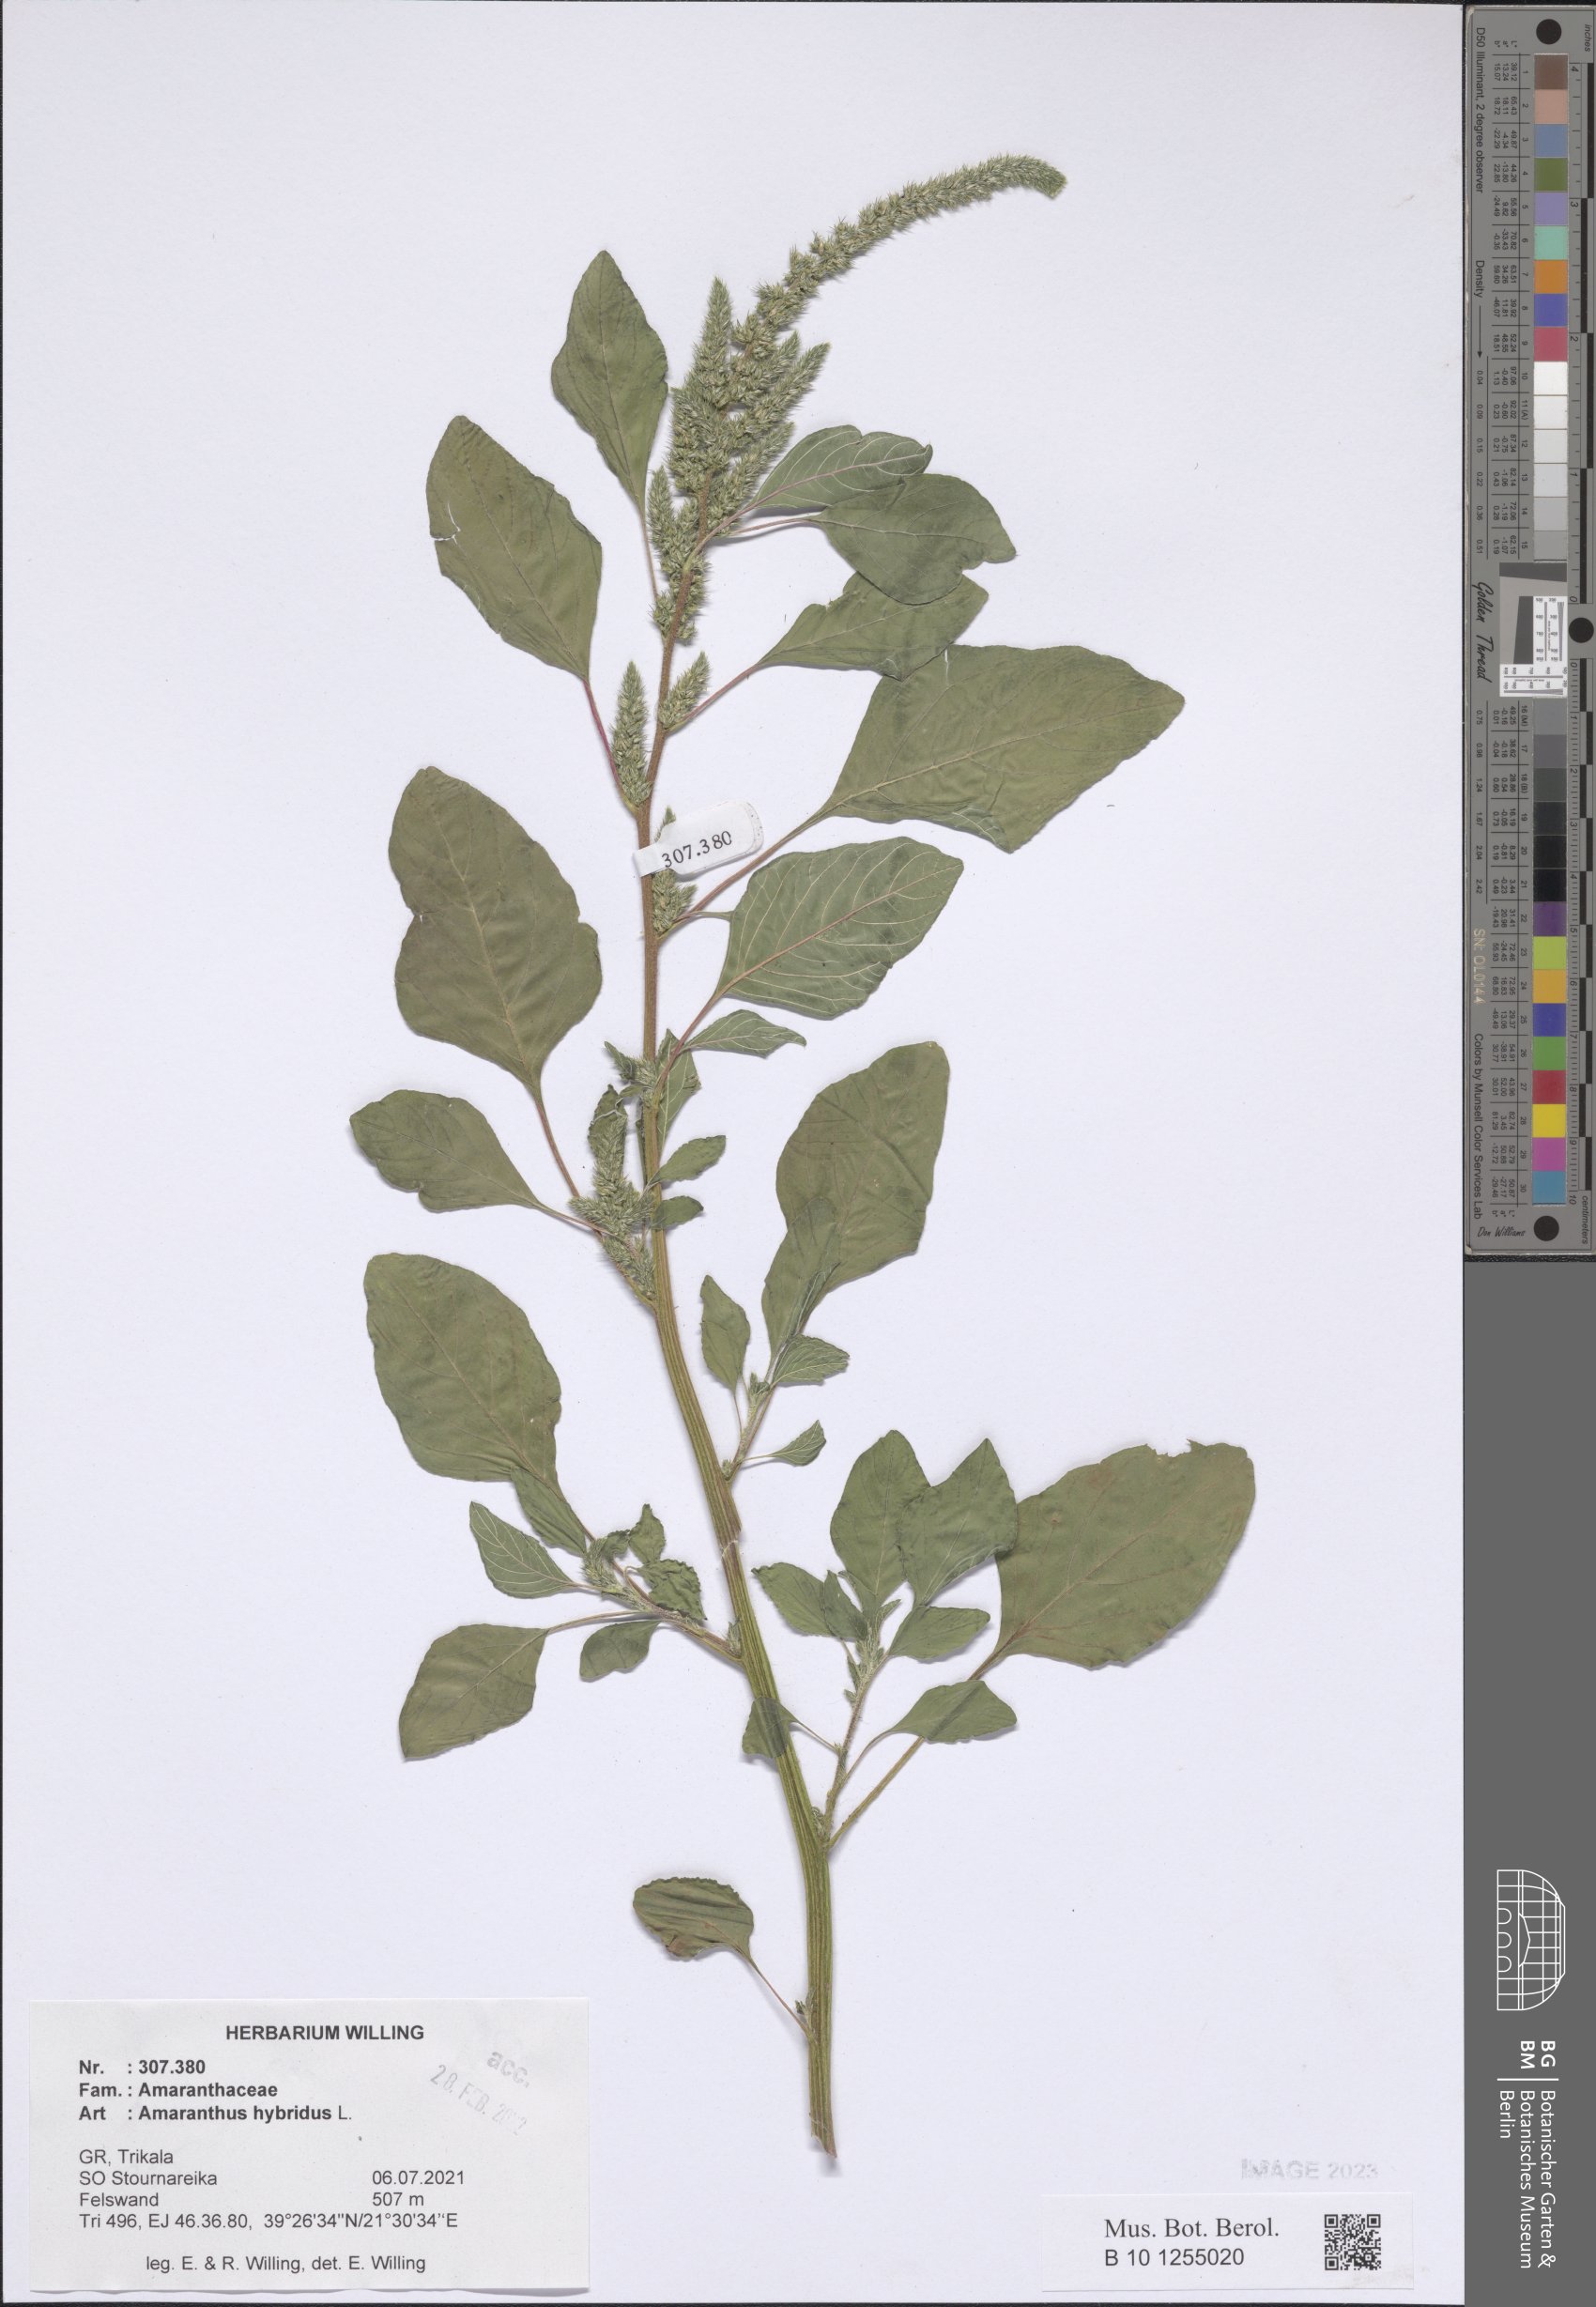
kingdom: Plantae
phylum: Tracheophyta
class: Magnoliopsida
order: Caryophyllales
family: Amaranthaceae
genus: Amaranthus
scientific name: Amaranthus hybridus
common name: Green amaranth
